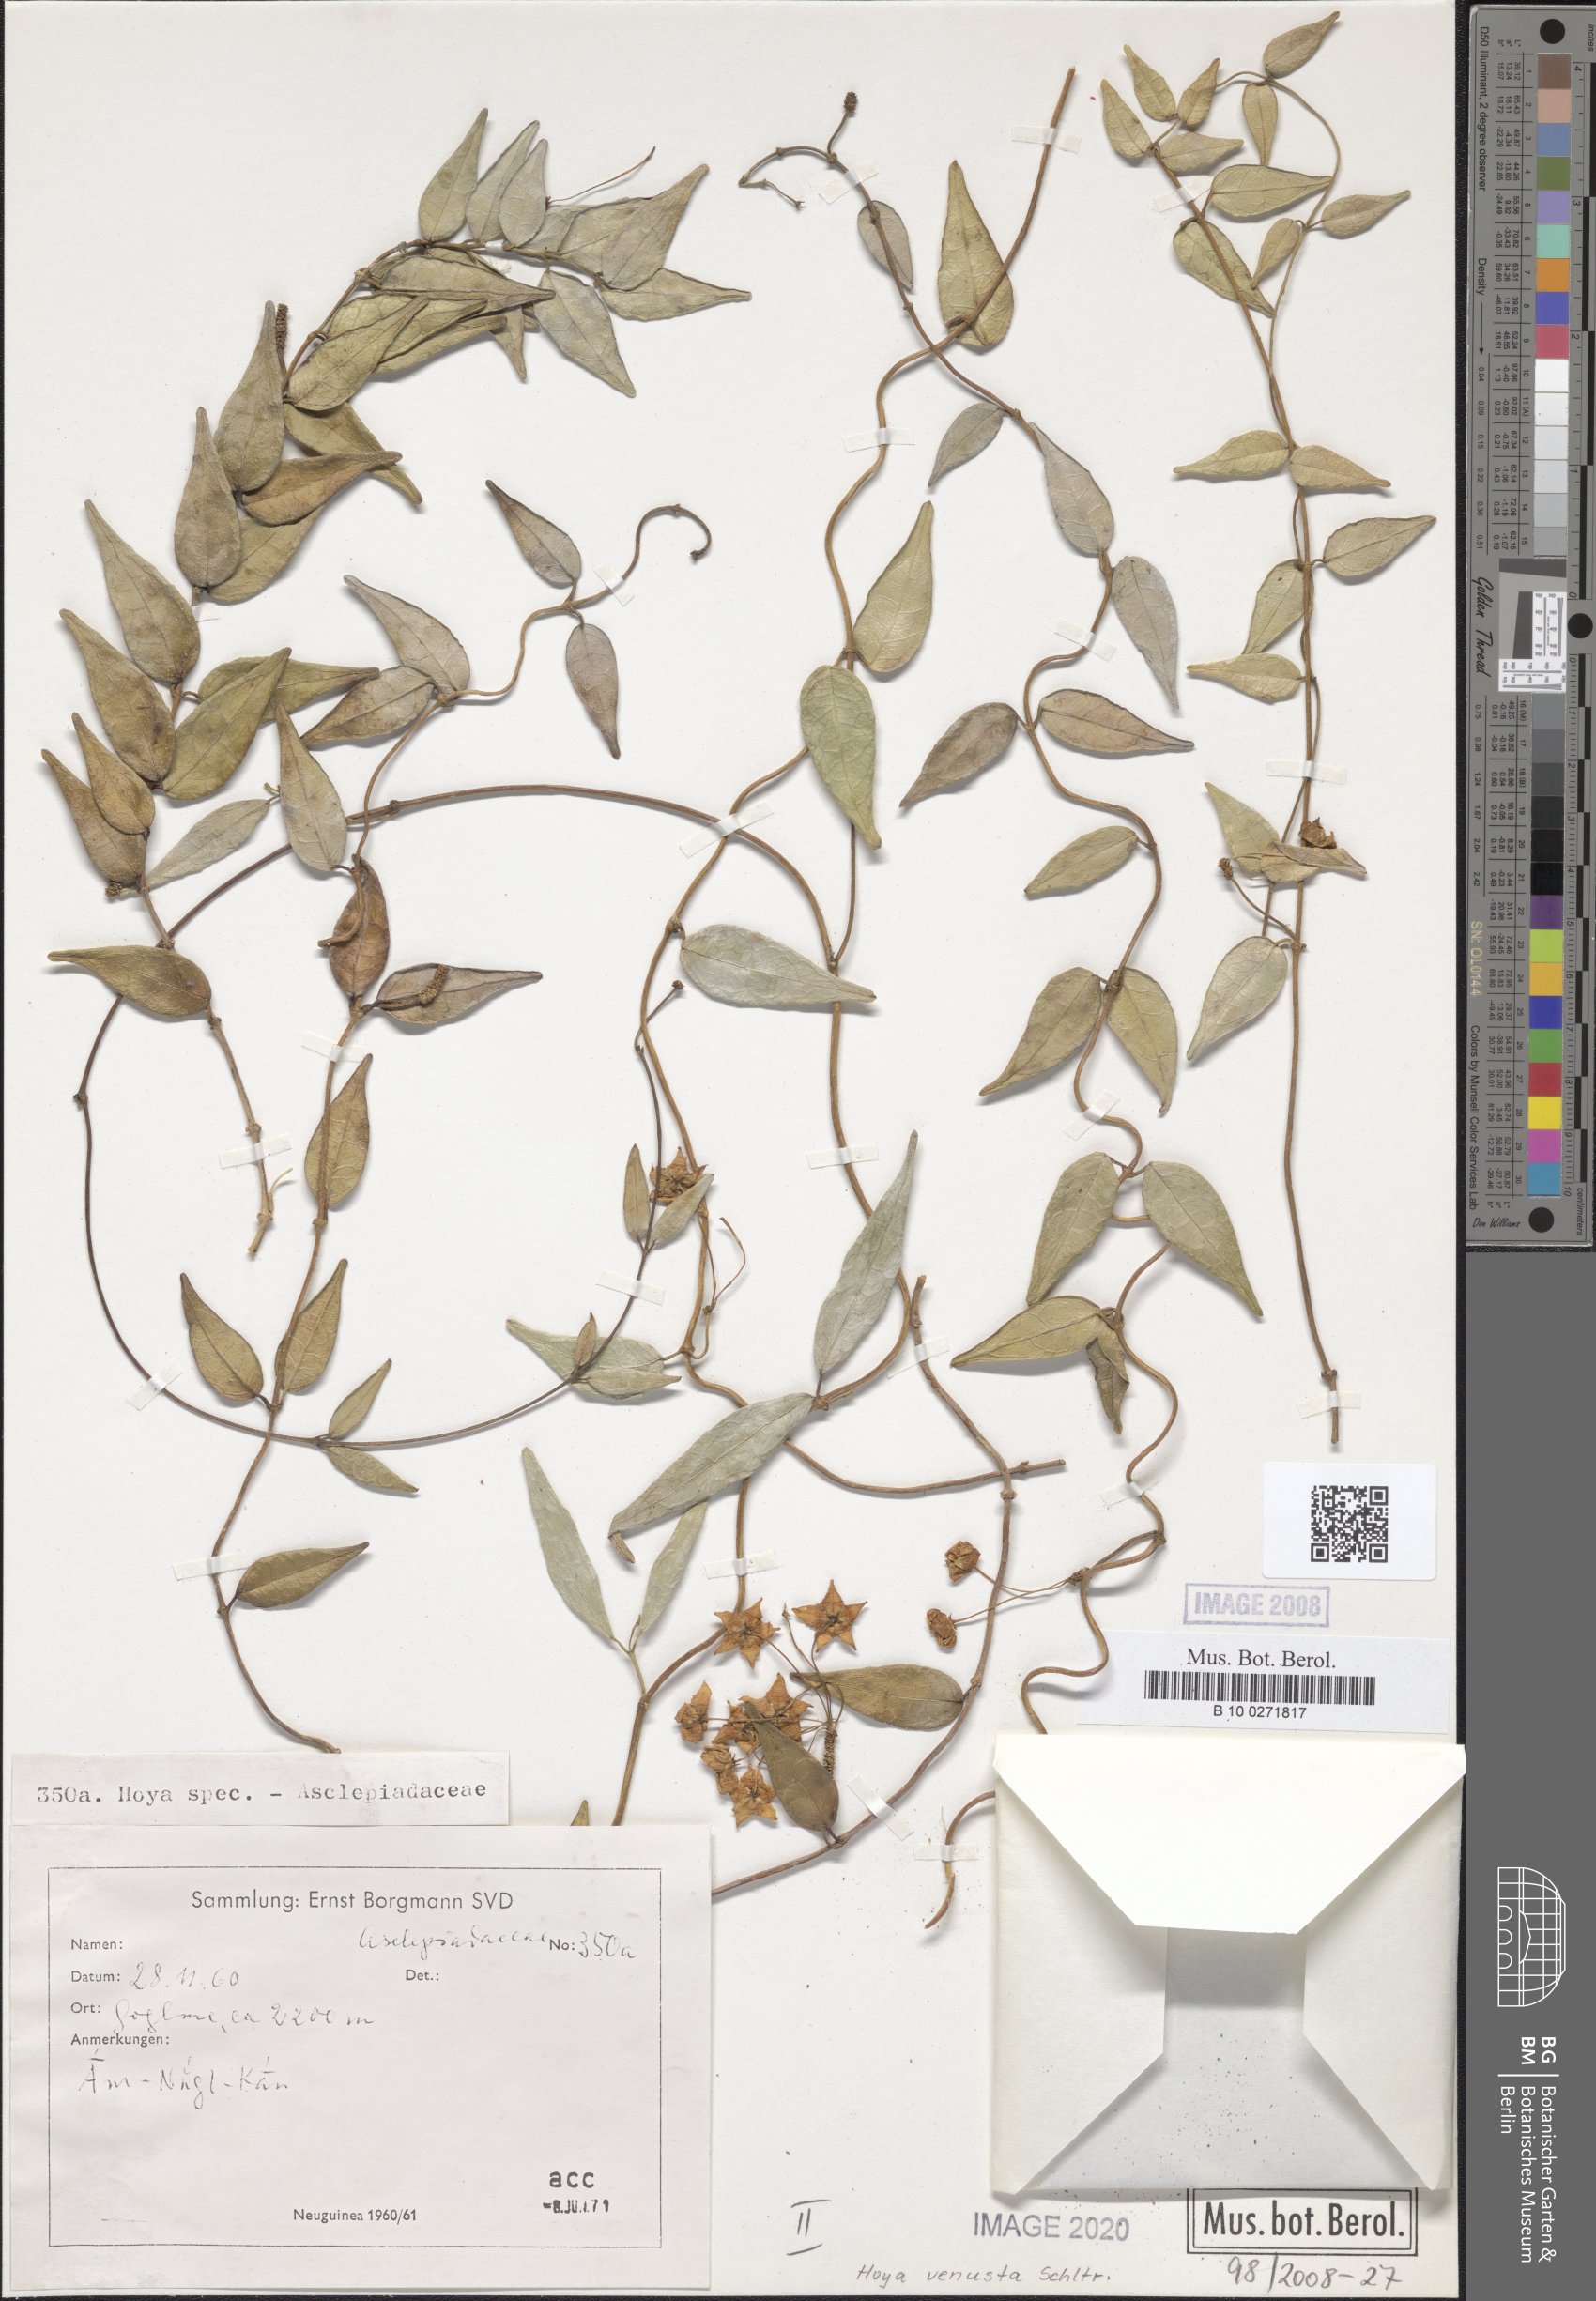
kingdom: Plantae
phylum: Tracheophyta
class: Magnoliopsida
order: Gentianales
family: Apocynaceae
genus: Hoya
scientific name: Hoya venusta
